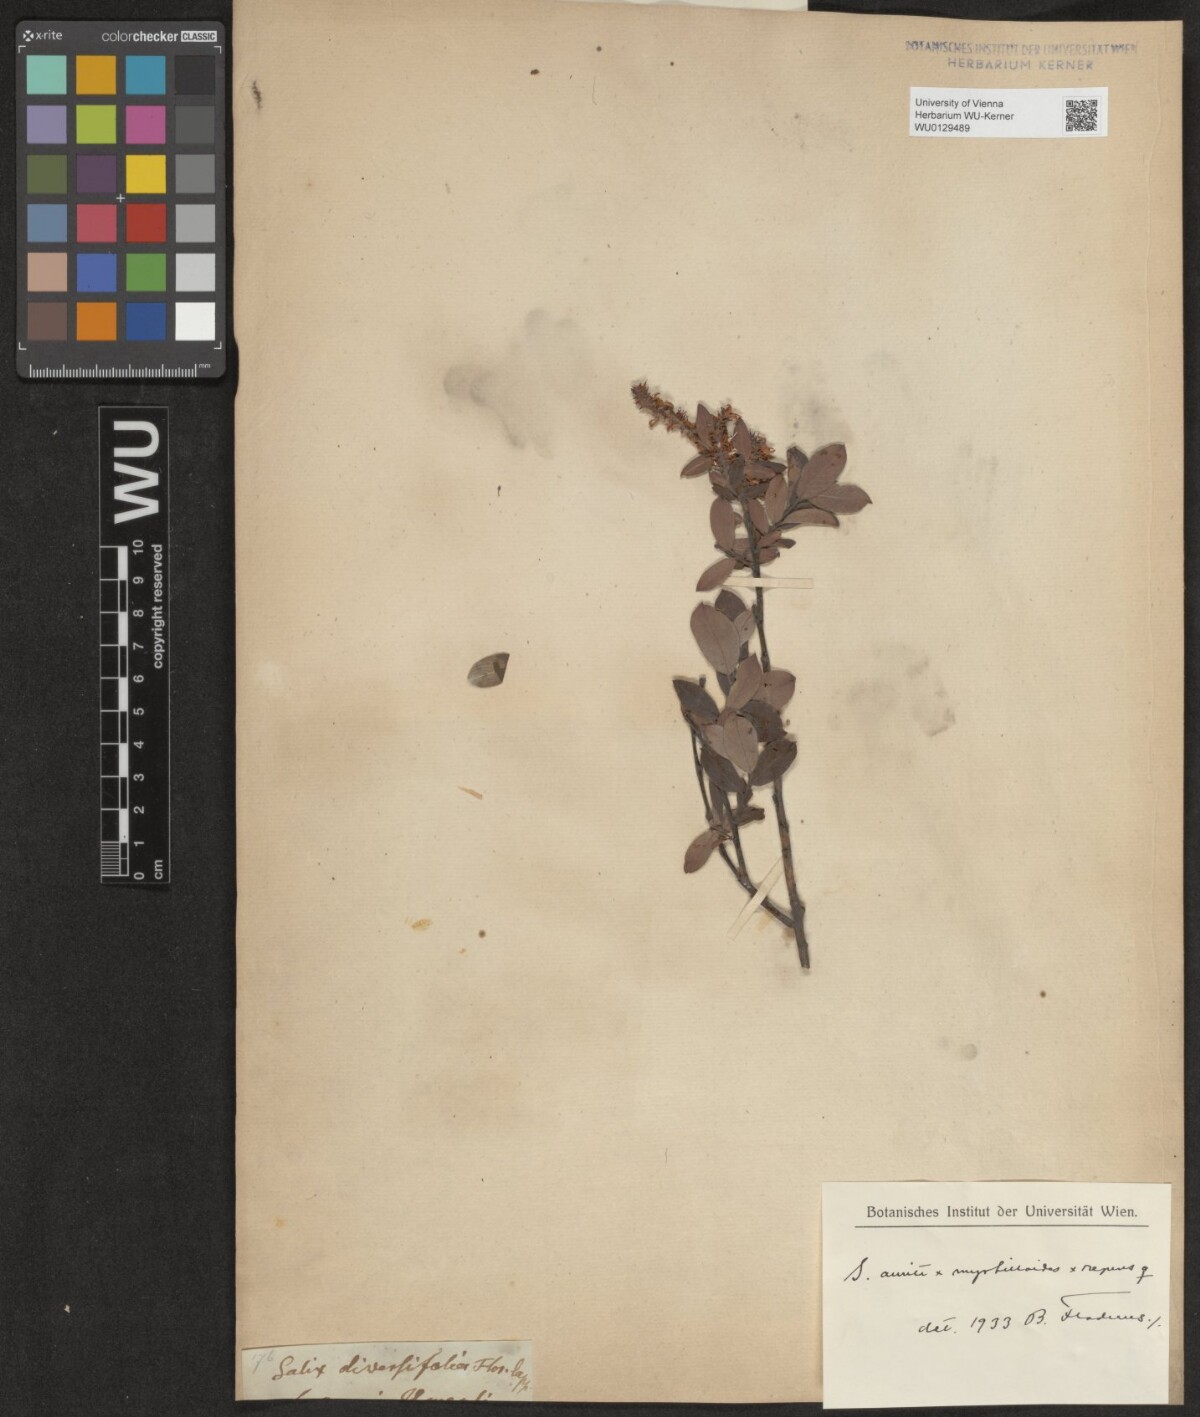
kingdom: Plantae
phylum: Tracheophyta
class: Magnoliopsida
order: Malpighiales
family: Salicaceae
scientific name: Salicaceae
